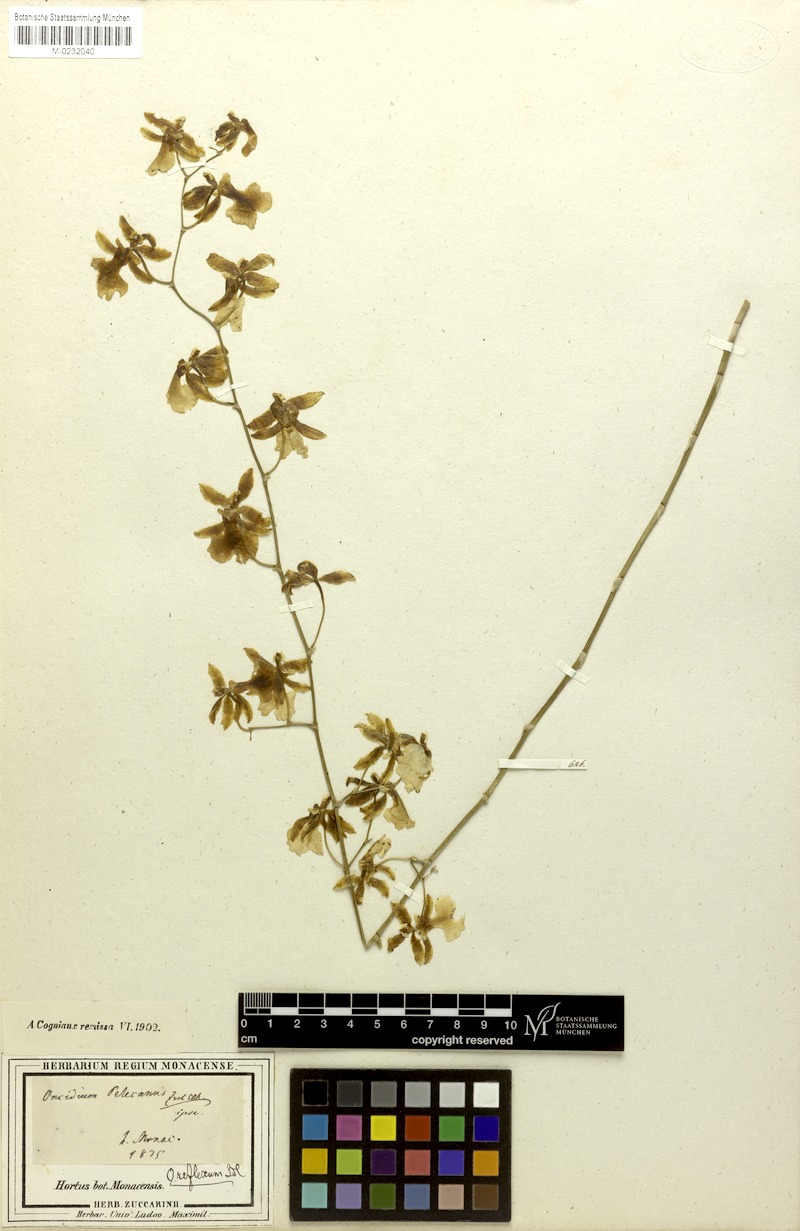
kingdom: Plantae
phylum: Tracheophyta
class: Liliopsida
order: Asparagales
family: Orchidaceae
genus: Oncidium
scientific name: Oncidium reflexum
